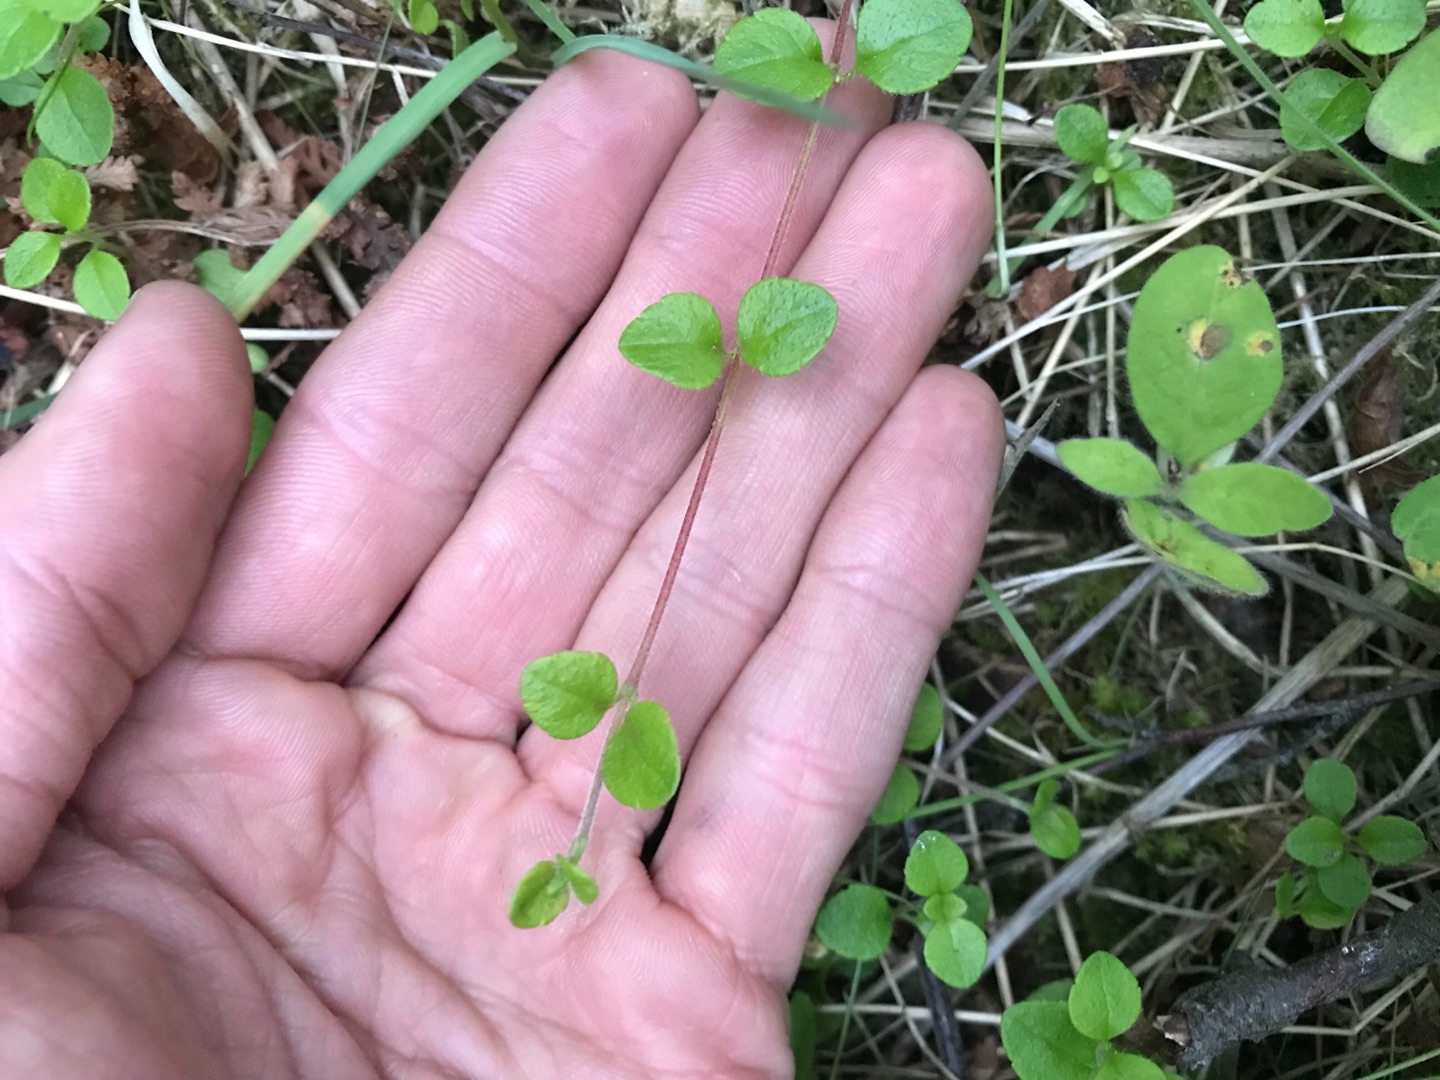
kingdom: Plantae
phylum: Tracheophyta
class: Magnoliopsida
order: Dipsacales
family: Caprifoliaceae
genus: Linnaea
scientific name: Linnaea borealis
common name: Linnæa
